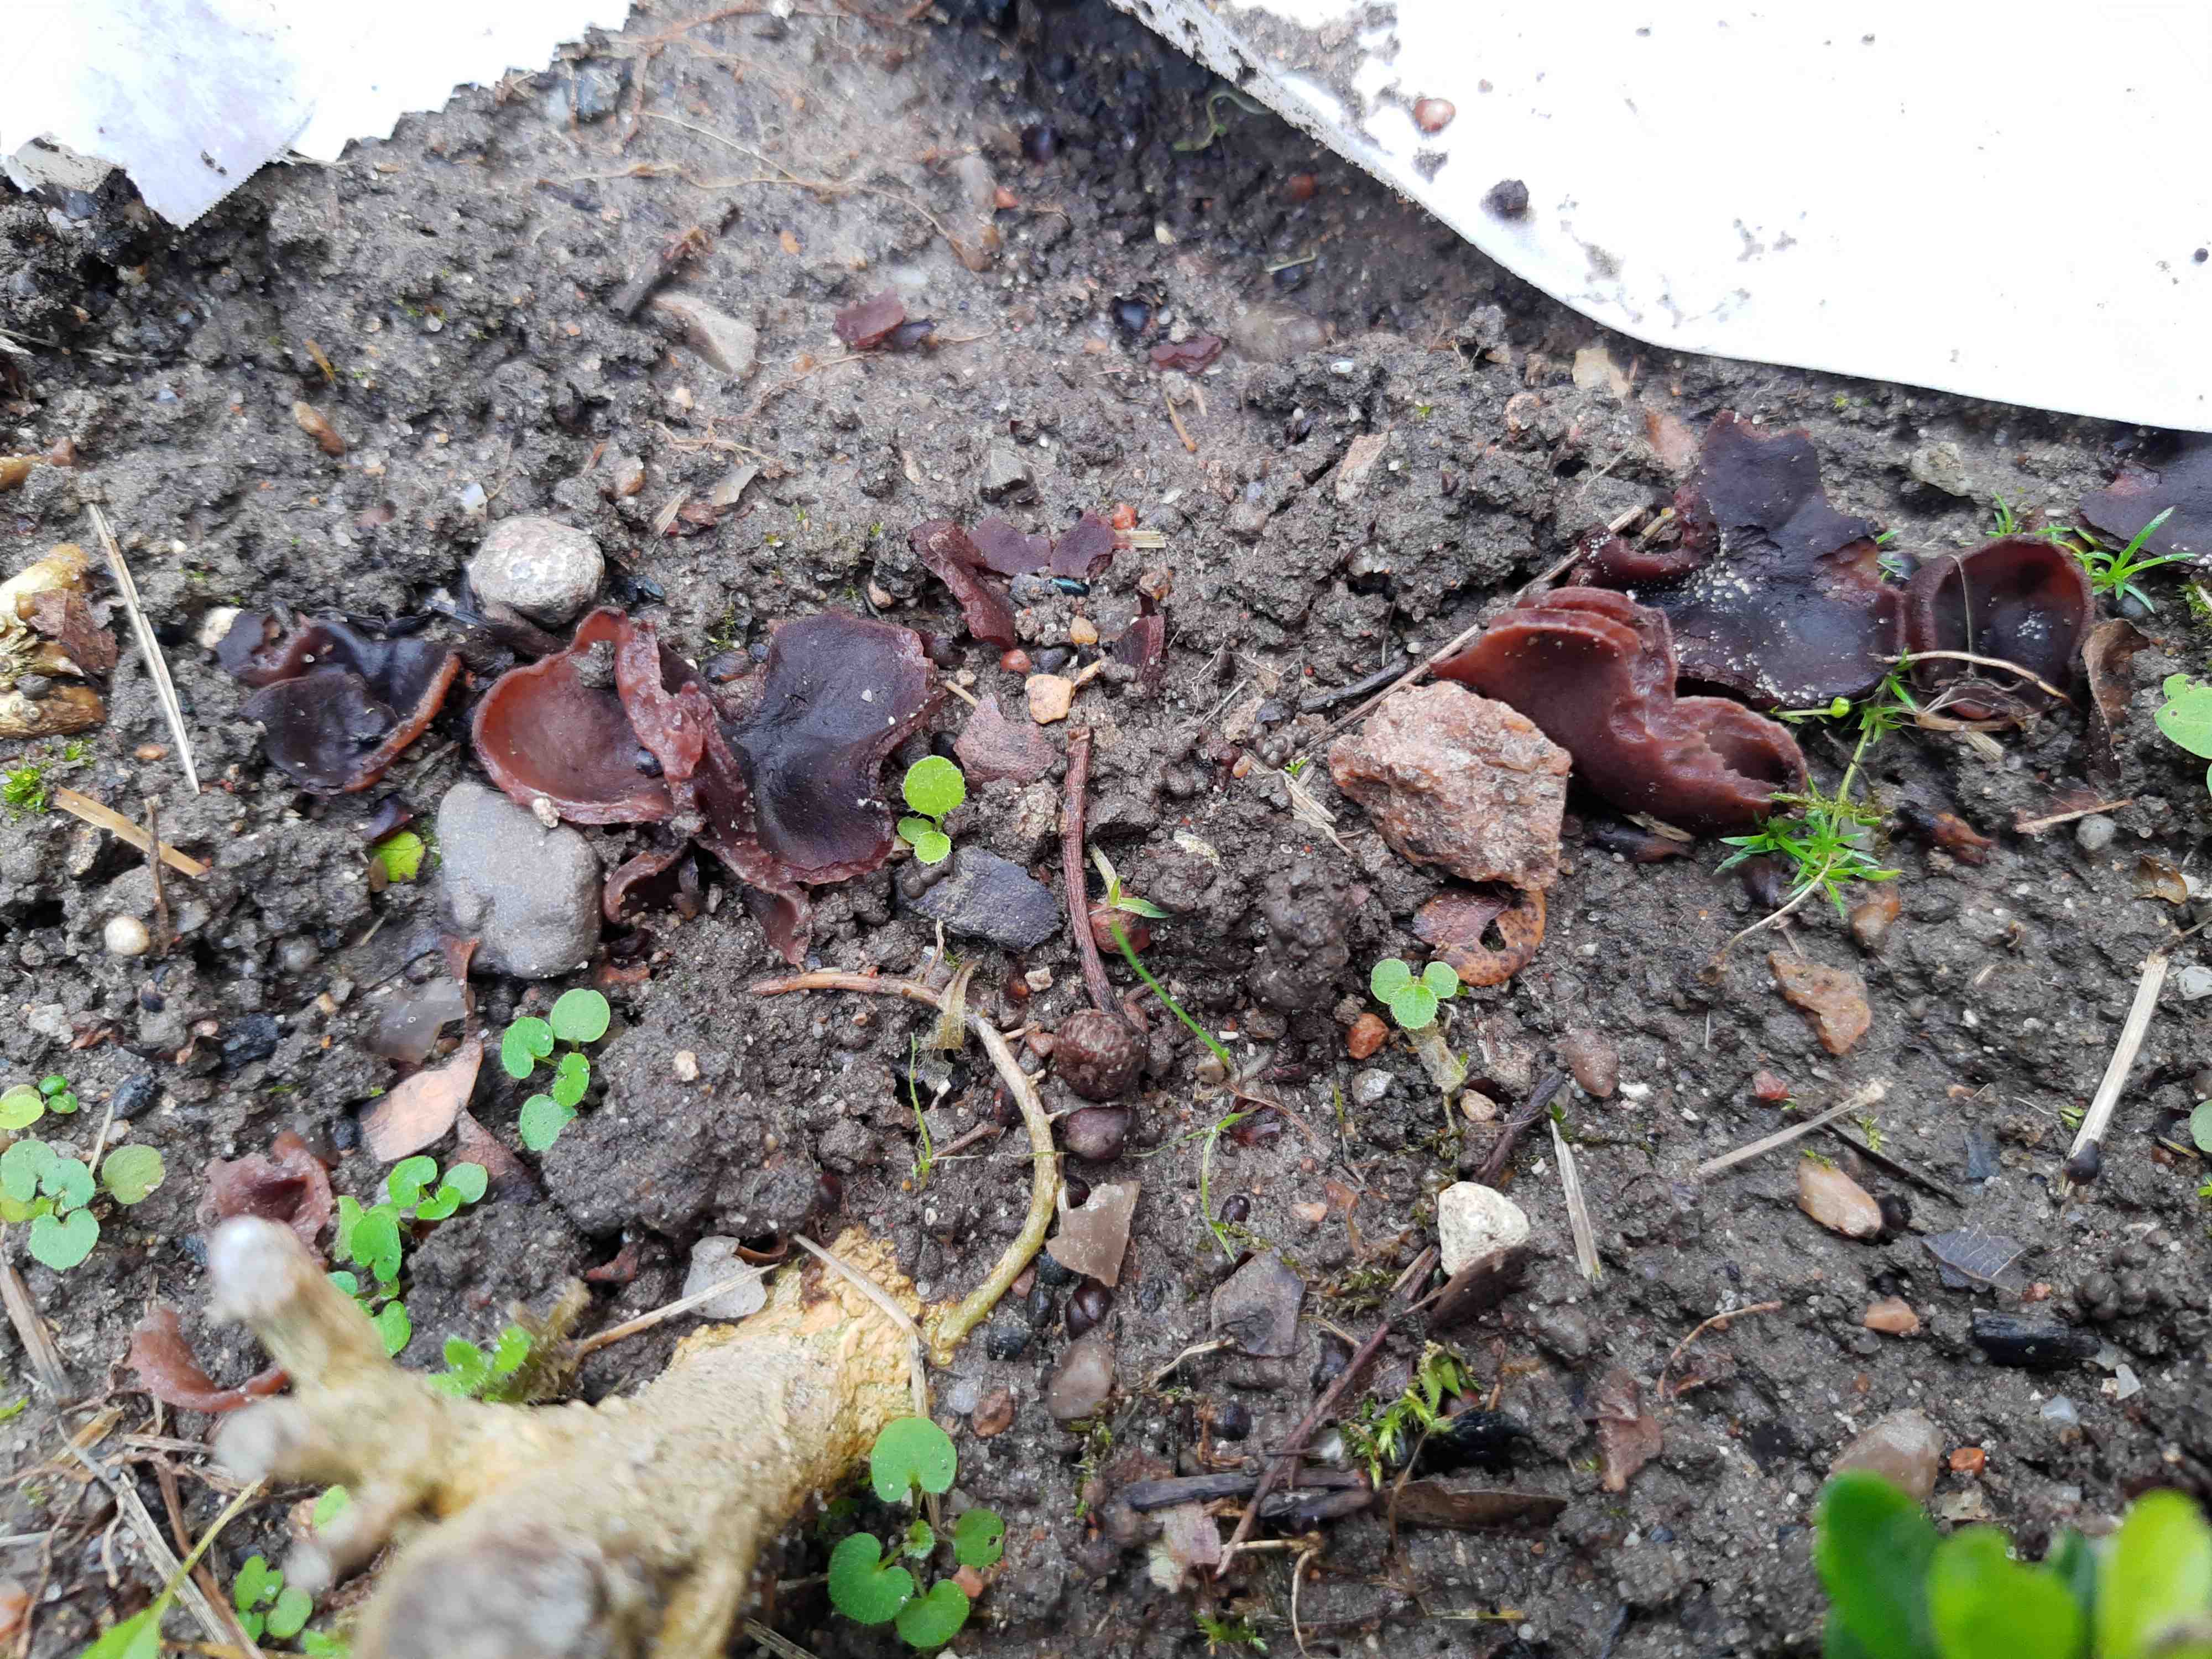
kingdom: Fungi
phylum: Ascomycota
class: Pezizomycetes
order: Pezizales
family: Pezizaceae
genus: Adelphella
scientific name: Adelphella babingtonii
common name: kastaniebrun bægersvamp
